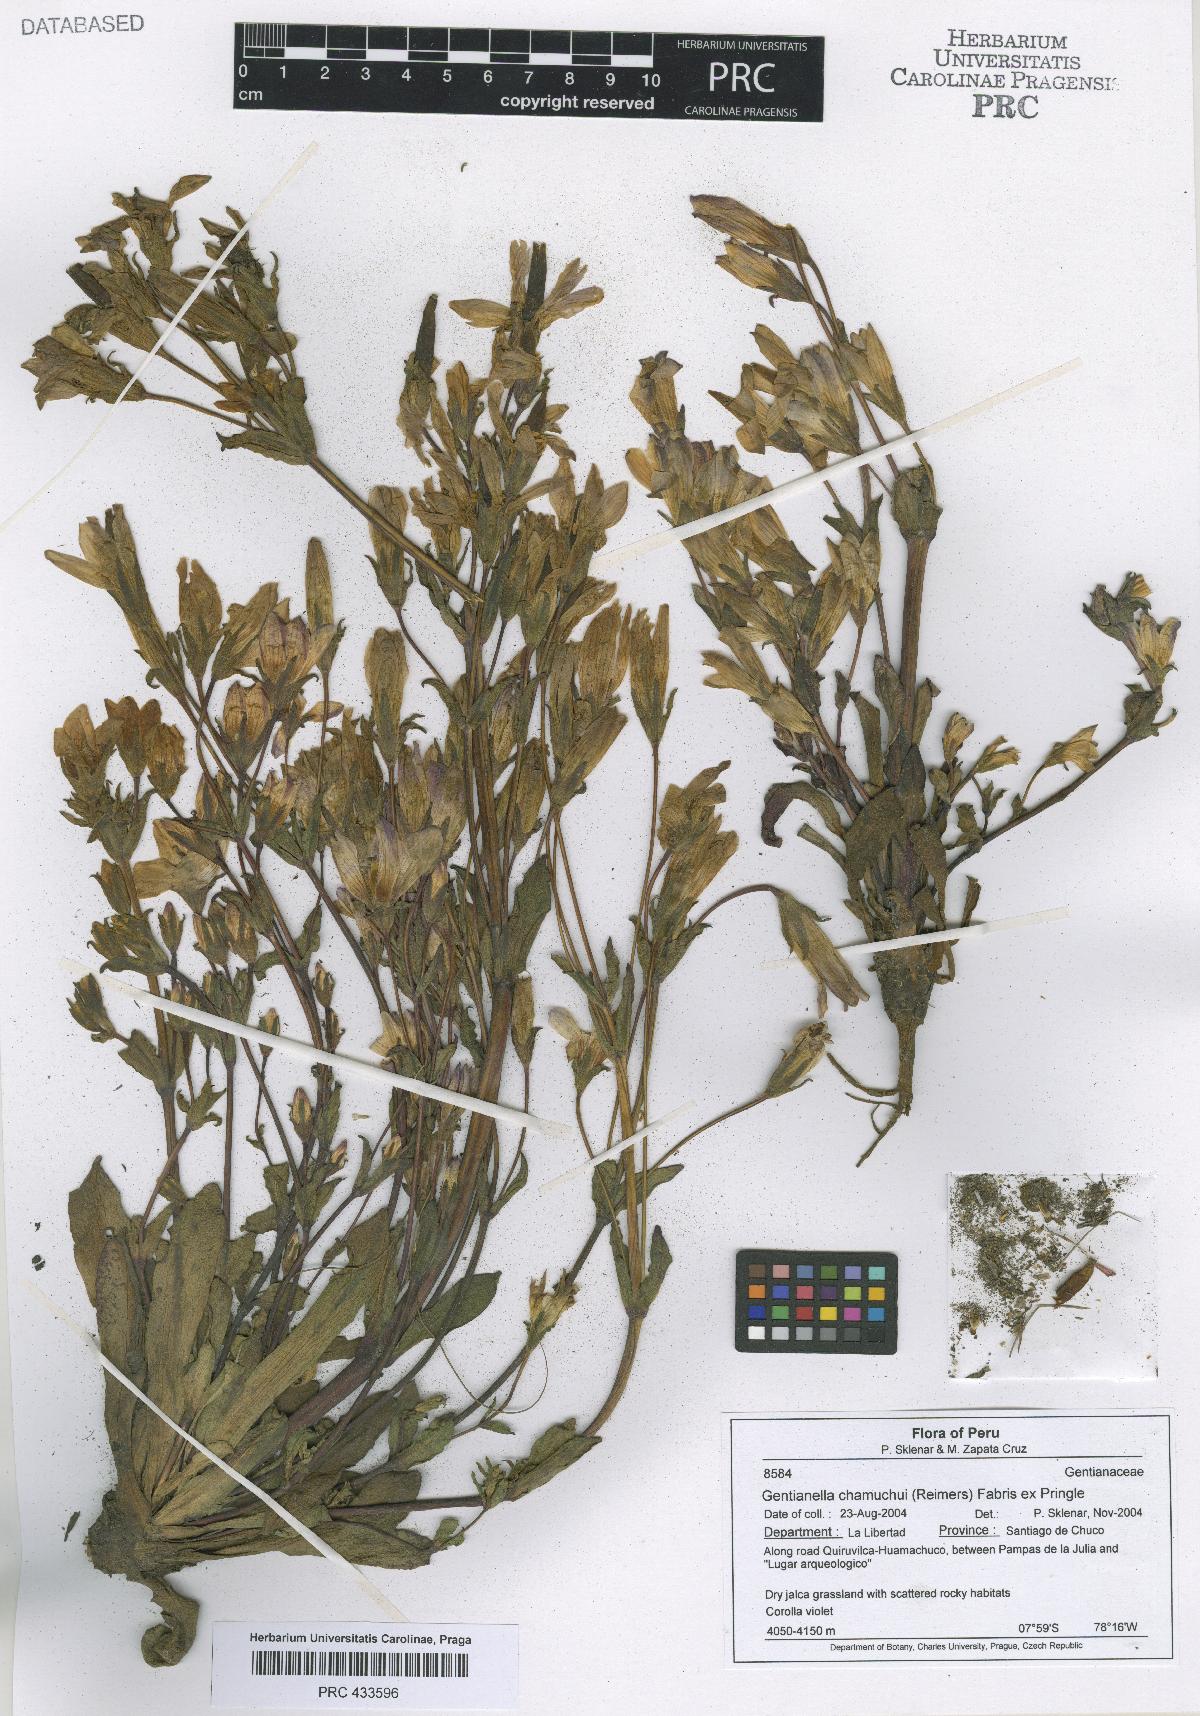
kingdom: Plantae
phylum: Tracheophyta
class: Magnoliopsida
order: Gentianales
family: Gentianaceae
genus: Gentianella
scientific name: Gentianella
